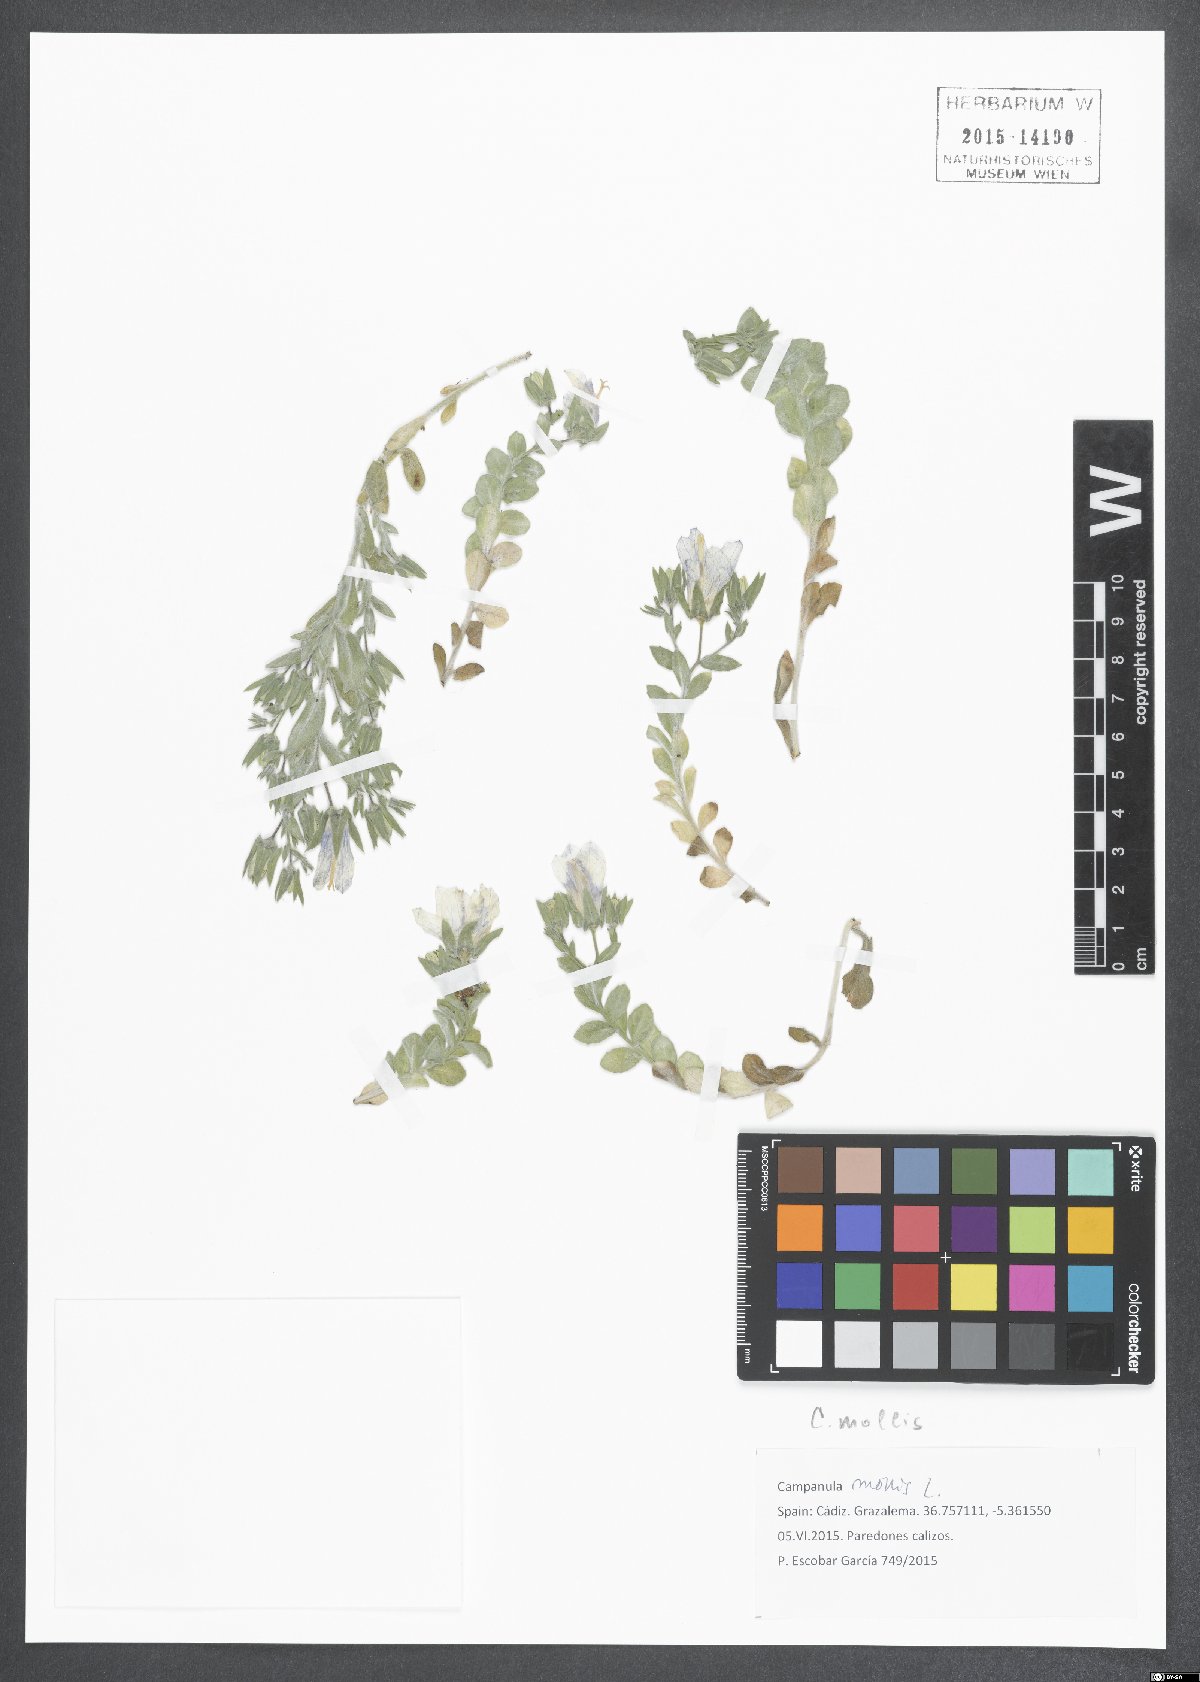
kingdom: Plantae
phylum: Tracheophyta
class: Magnoliopsida
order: Asterales
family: Campanulaceae
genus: Campanula
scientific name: Campanula mollis
